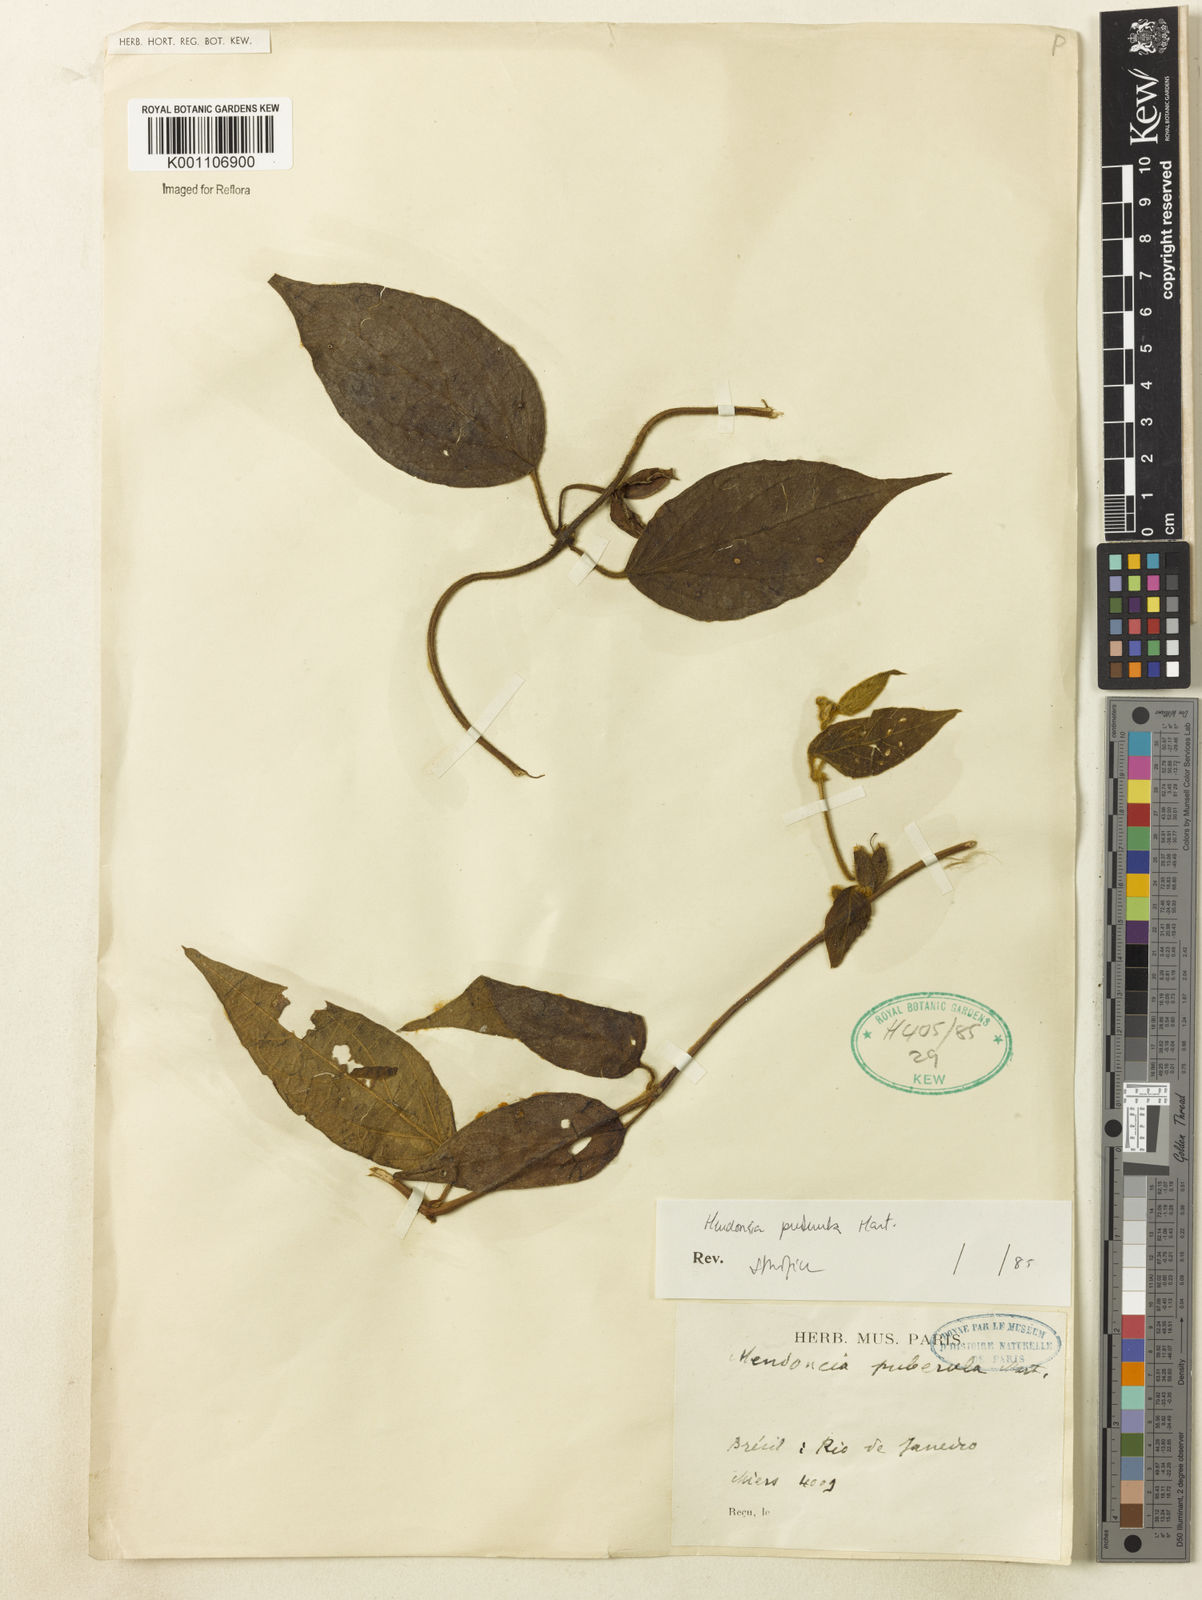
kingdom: Plantae
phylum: Tracheophyta
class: Magnoliopsida
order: Lamiales
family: Acanthaceae
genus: Mendoncia
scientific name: Mendoncia puberula
